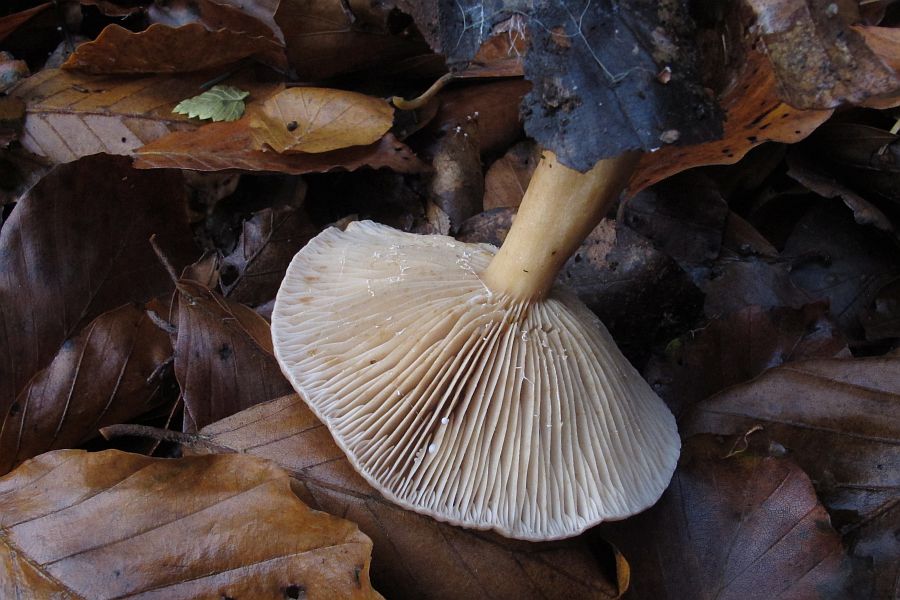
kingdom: Fungi
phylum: Basidiomycota
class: Agaricomycetes
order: Russulales
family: Russulaceae
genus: Lactarius
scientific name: Lactarius subdulcis
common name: sødlig mælkehat
